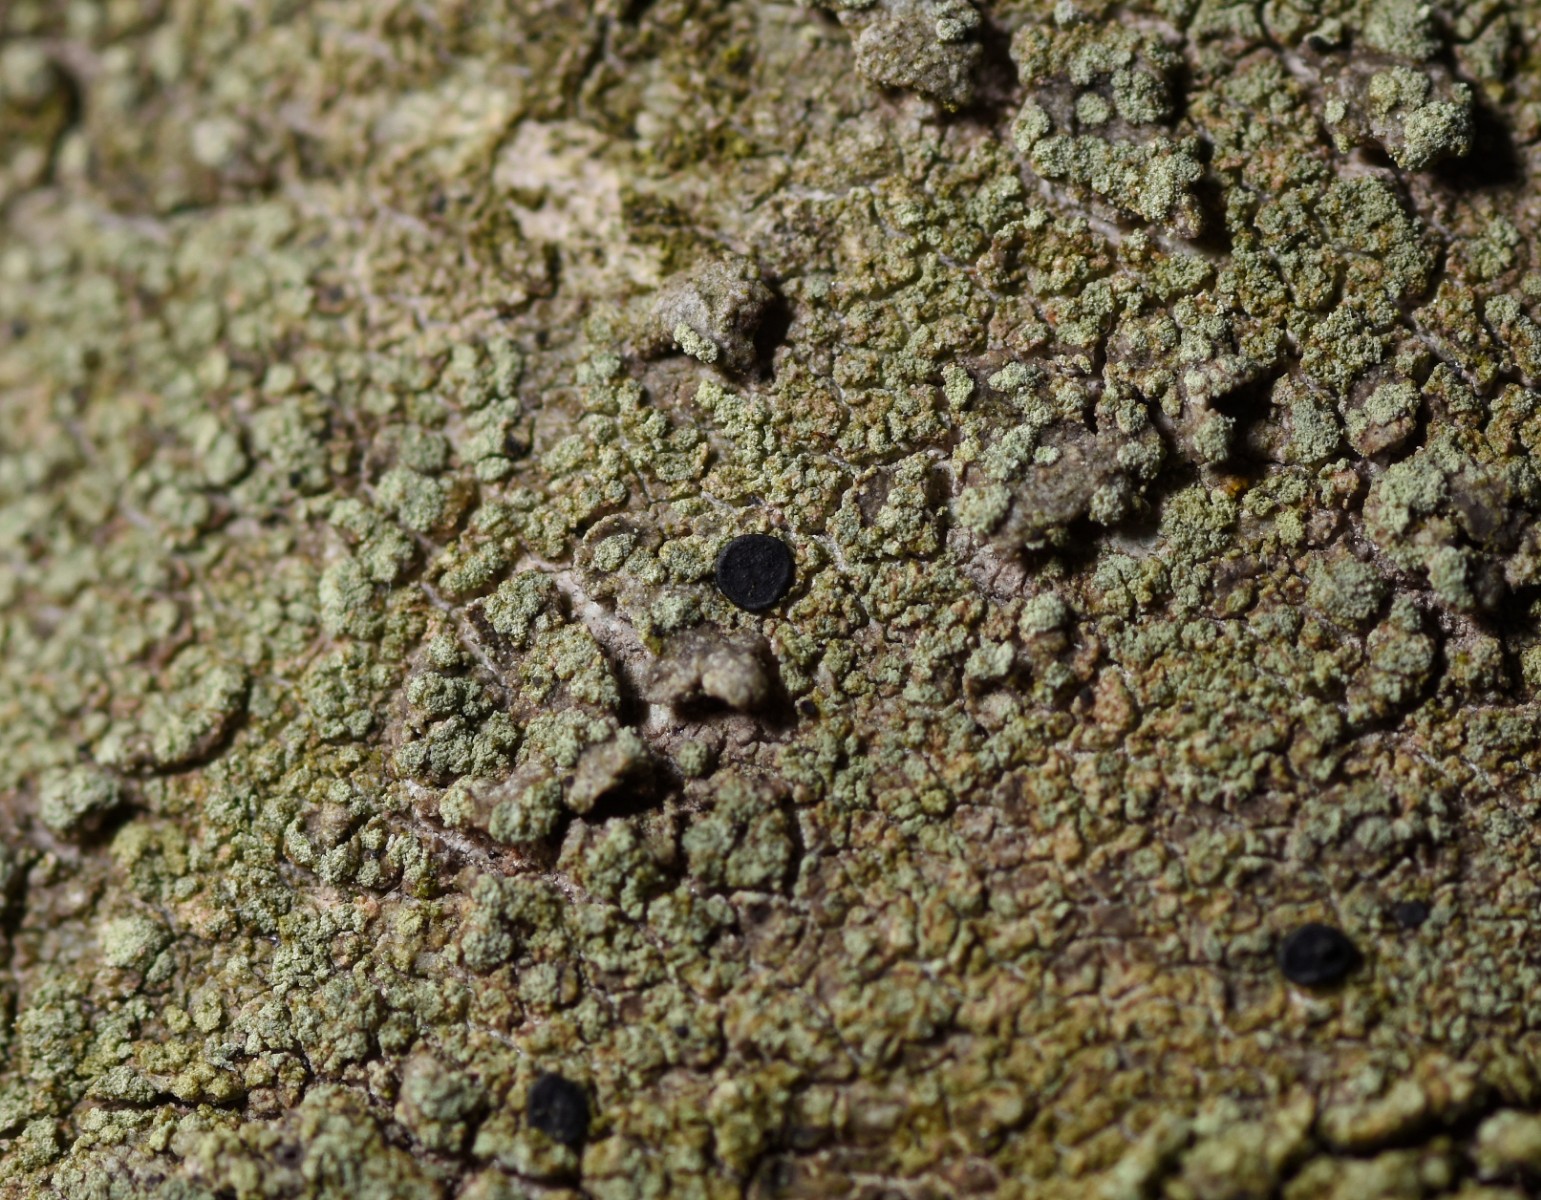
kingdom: Fungi
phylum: Ascomycota
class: Lecanoromycetes
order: Caliciales
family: Caliciaceae
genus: Buellia
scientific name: Buellia griseovirens
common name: grågrøn sortskivelav
